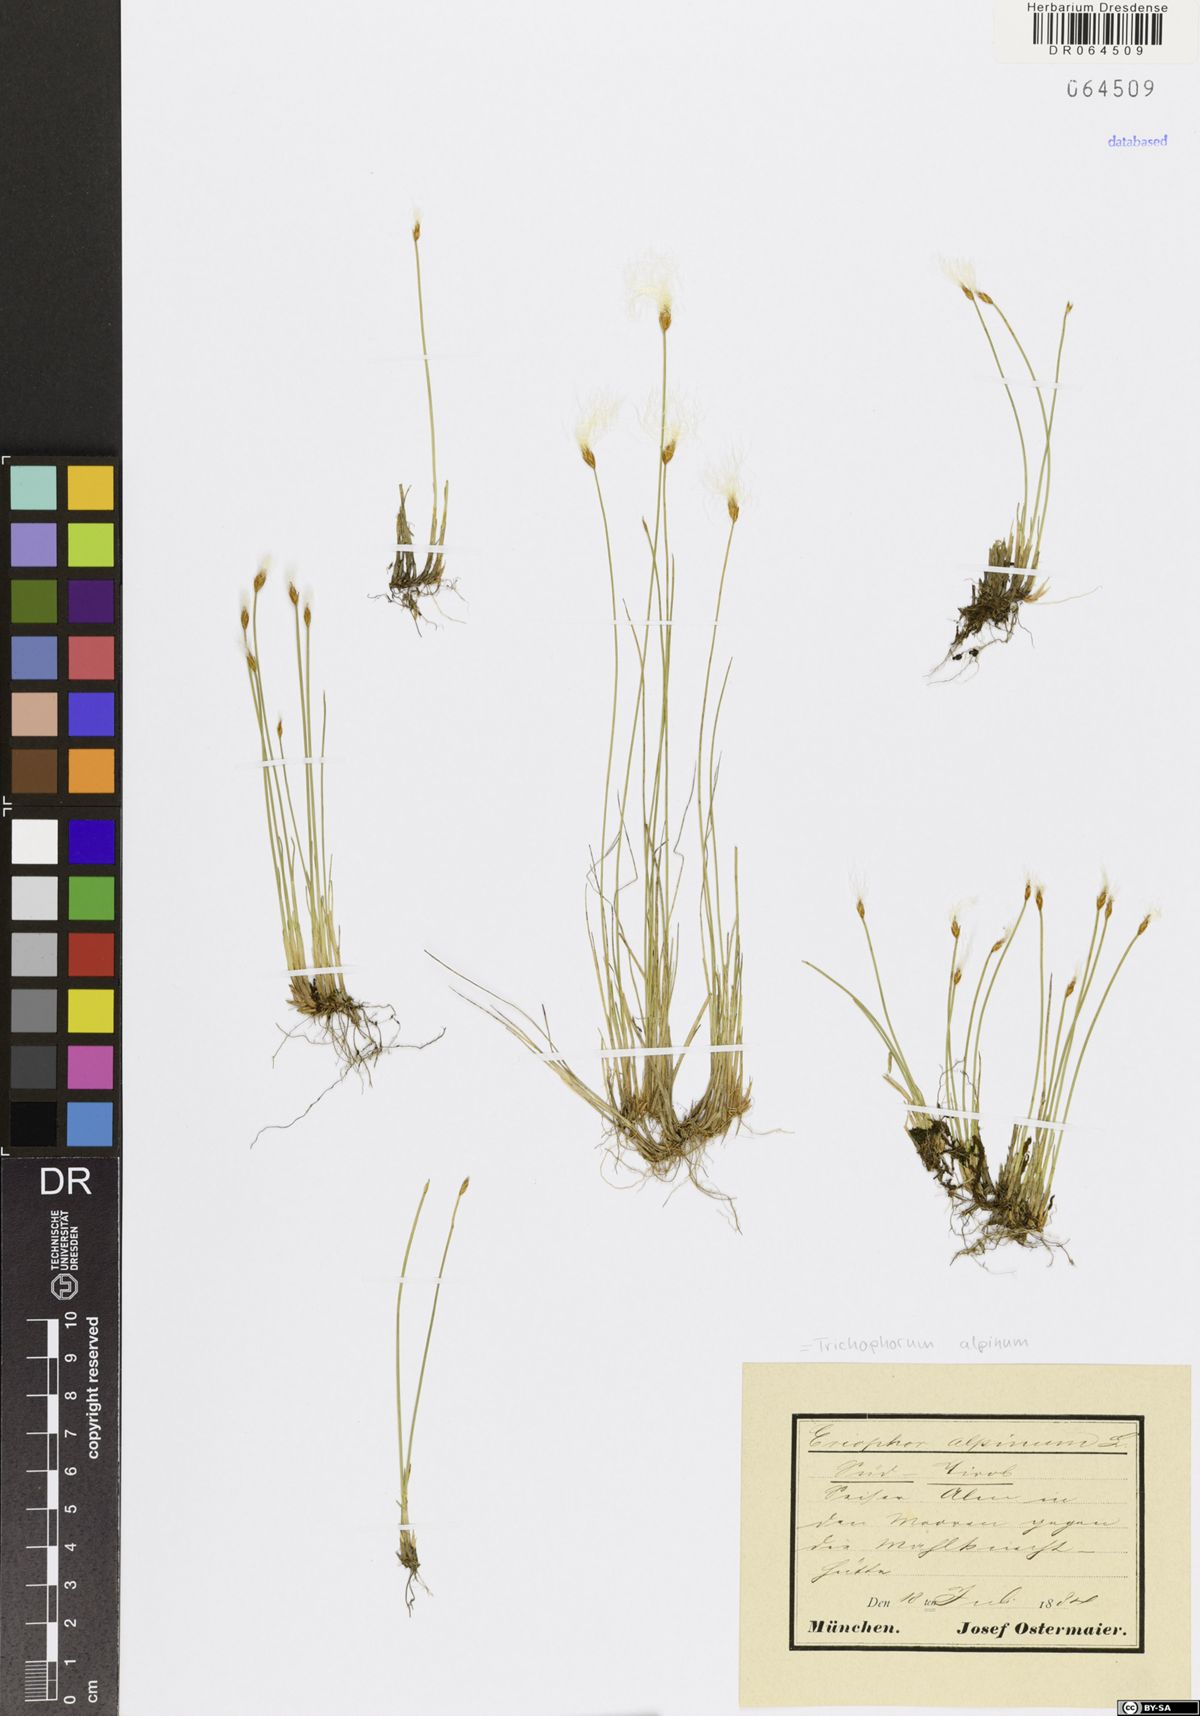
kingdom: Plantae
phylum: Tracheophyta
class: Liliopsida
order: Poales
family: Cyperaceae
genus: Trichophorum
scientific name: Trichophorum alpinum
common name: Alpine bulrush
